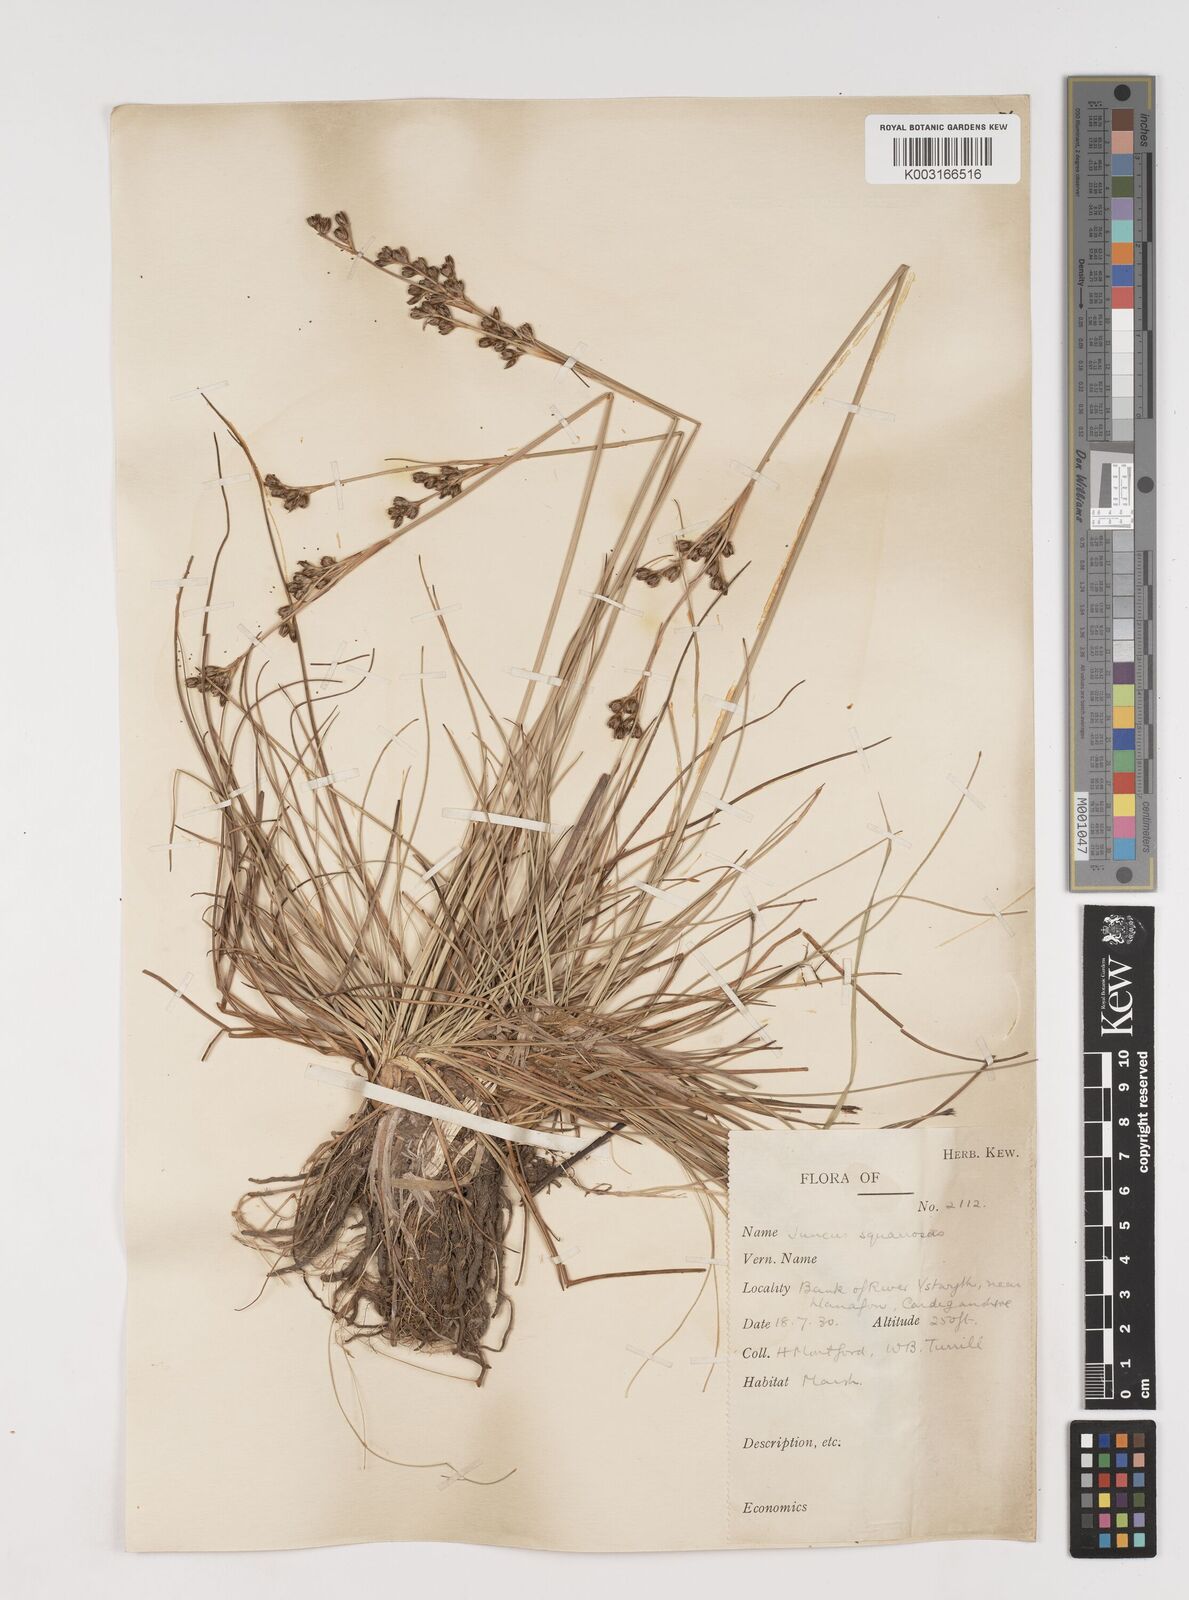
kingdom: Plantae
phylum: Tracheophyta
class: Liliopsida
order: Poales
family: Juncaceae
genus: Juncus
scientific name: Juncus squarrosus
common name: Heath rush
